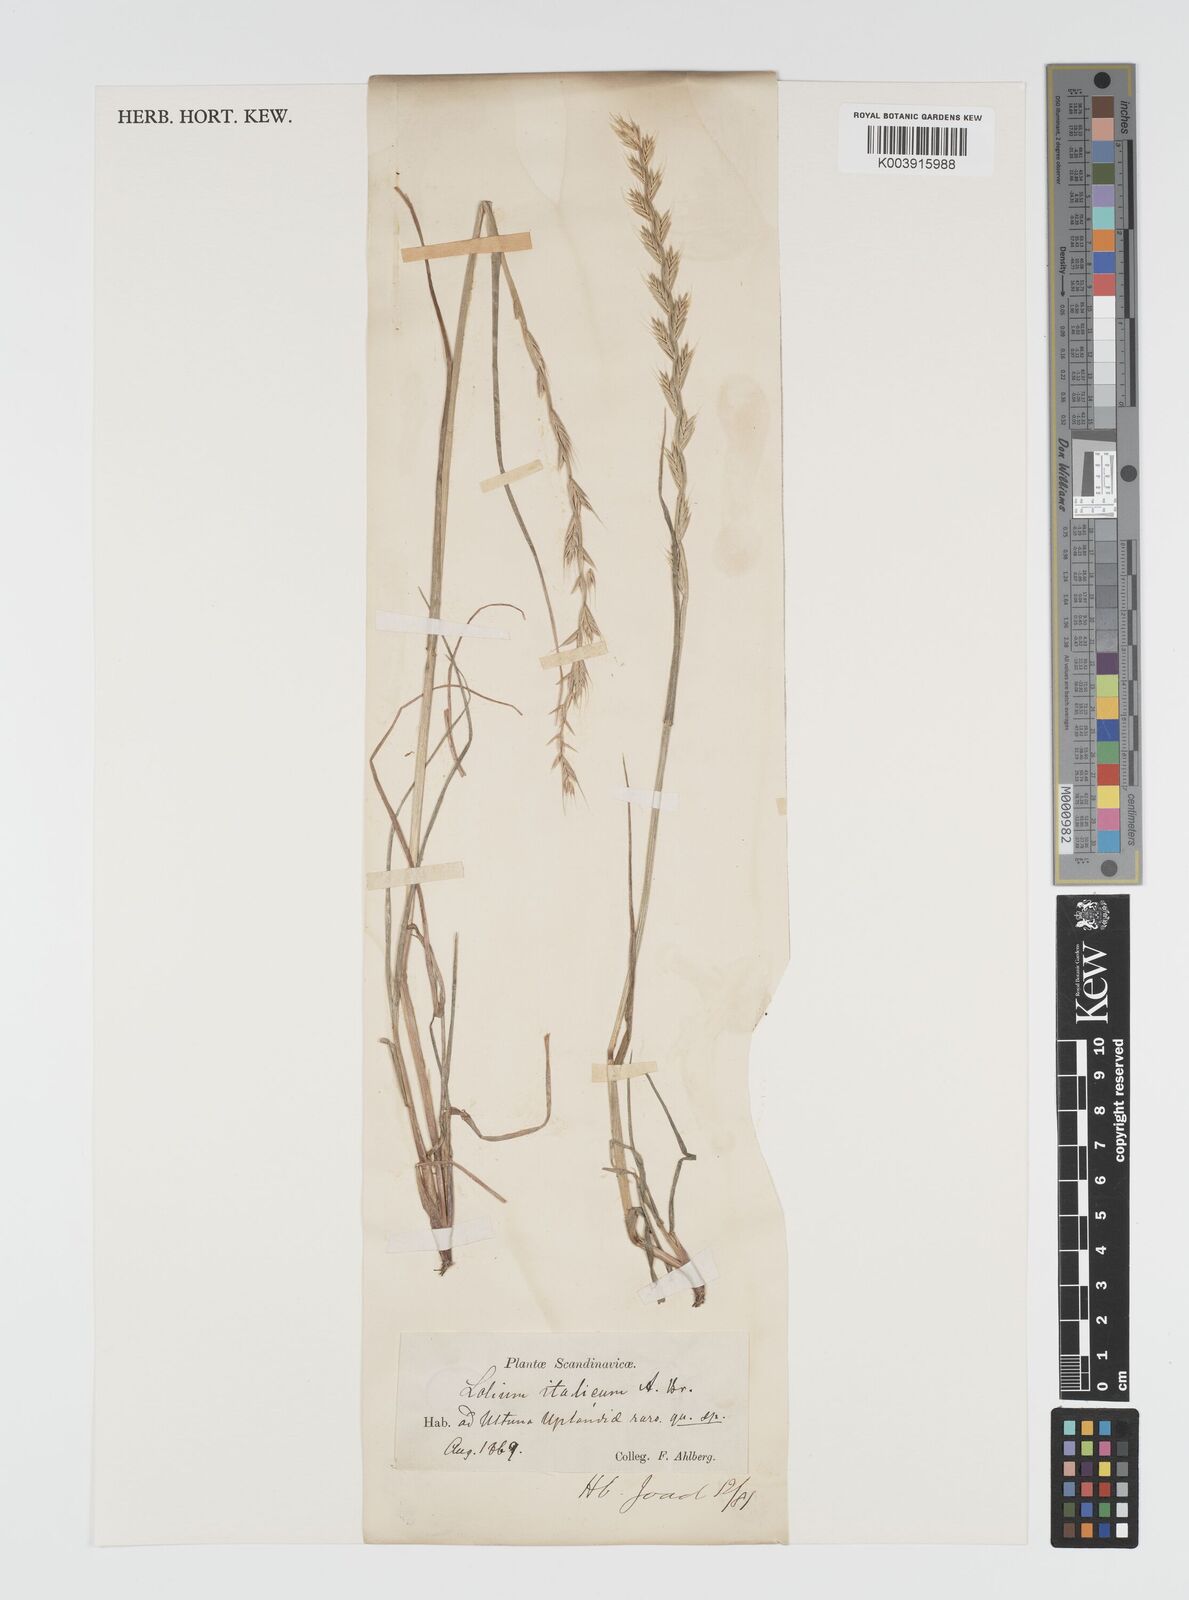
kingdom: Plantae
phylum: Tracheophyta
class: Liliopsida
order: Poales
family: Poaceae
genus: Lolium
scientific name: Lolium multiflorum
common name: Annual ryegrass
